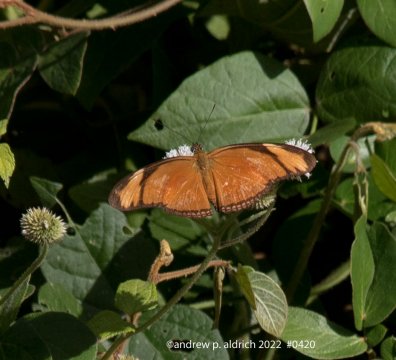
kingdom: Animalia
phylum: Arthropoda
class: Insecta
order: Lepidoptera
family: Nymphalidae
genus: Dryas
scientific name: Dryas iulia
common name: Julia
